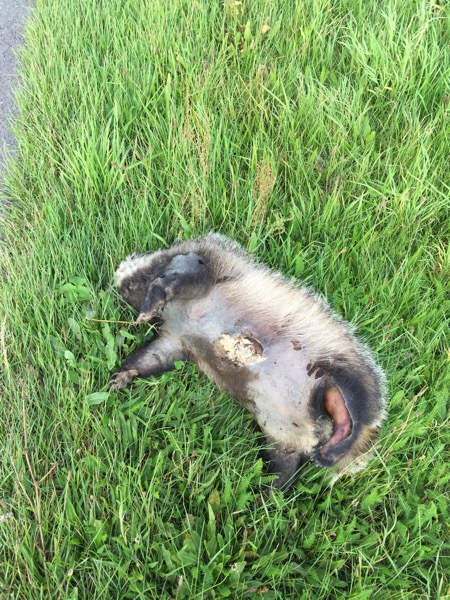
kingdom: Animalia
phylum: Chordata
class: Mammalia
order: Carnivora
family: Mustelidae
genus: Meles
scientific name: Meles meles
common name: Eurasian badger
